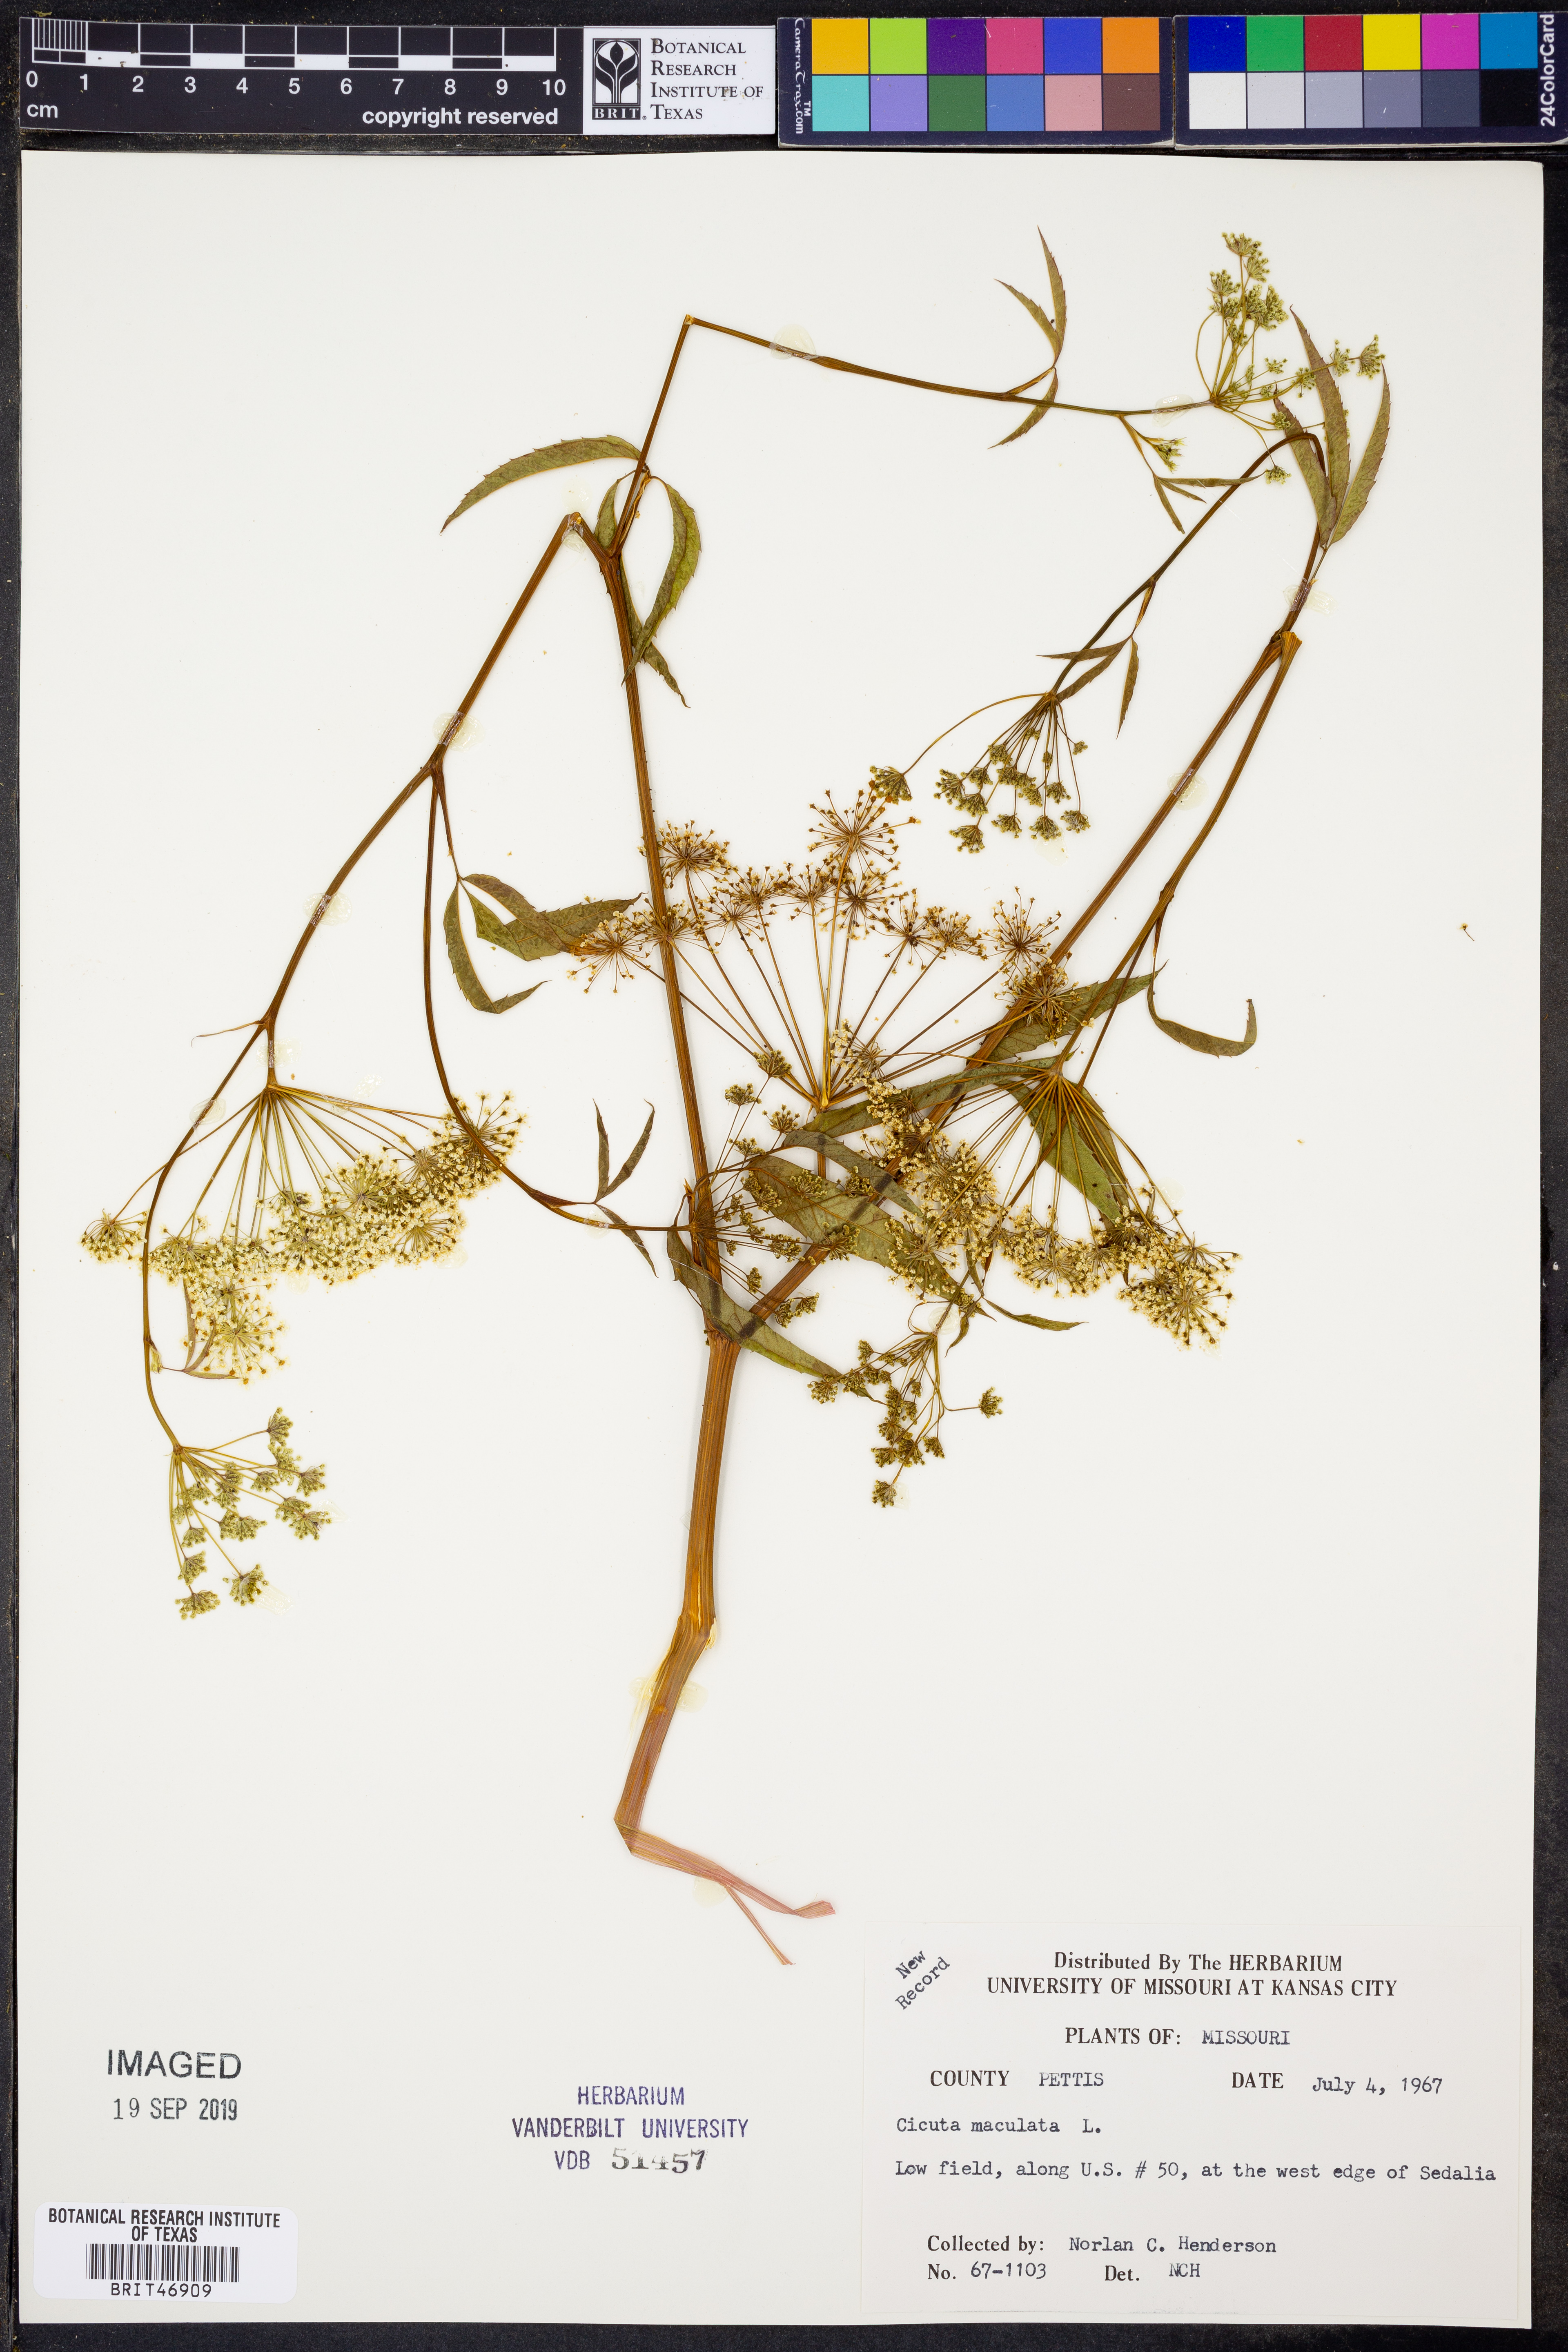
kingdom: Plantae
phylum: Tracheophyta
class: Magnoliopsida
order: Apiales
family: Apiaceae
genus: Cicuta
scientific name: Cicuta maculata
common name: Spotted cowbane
